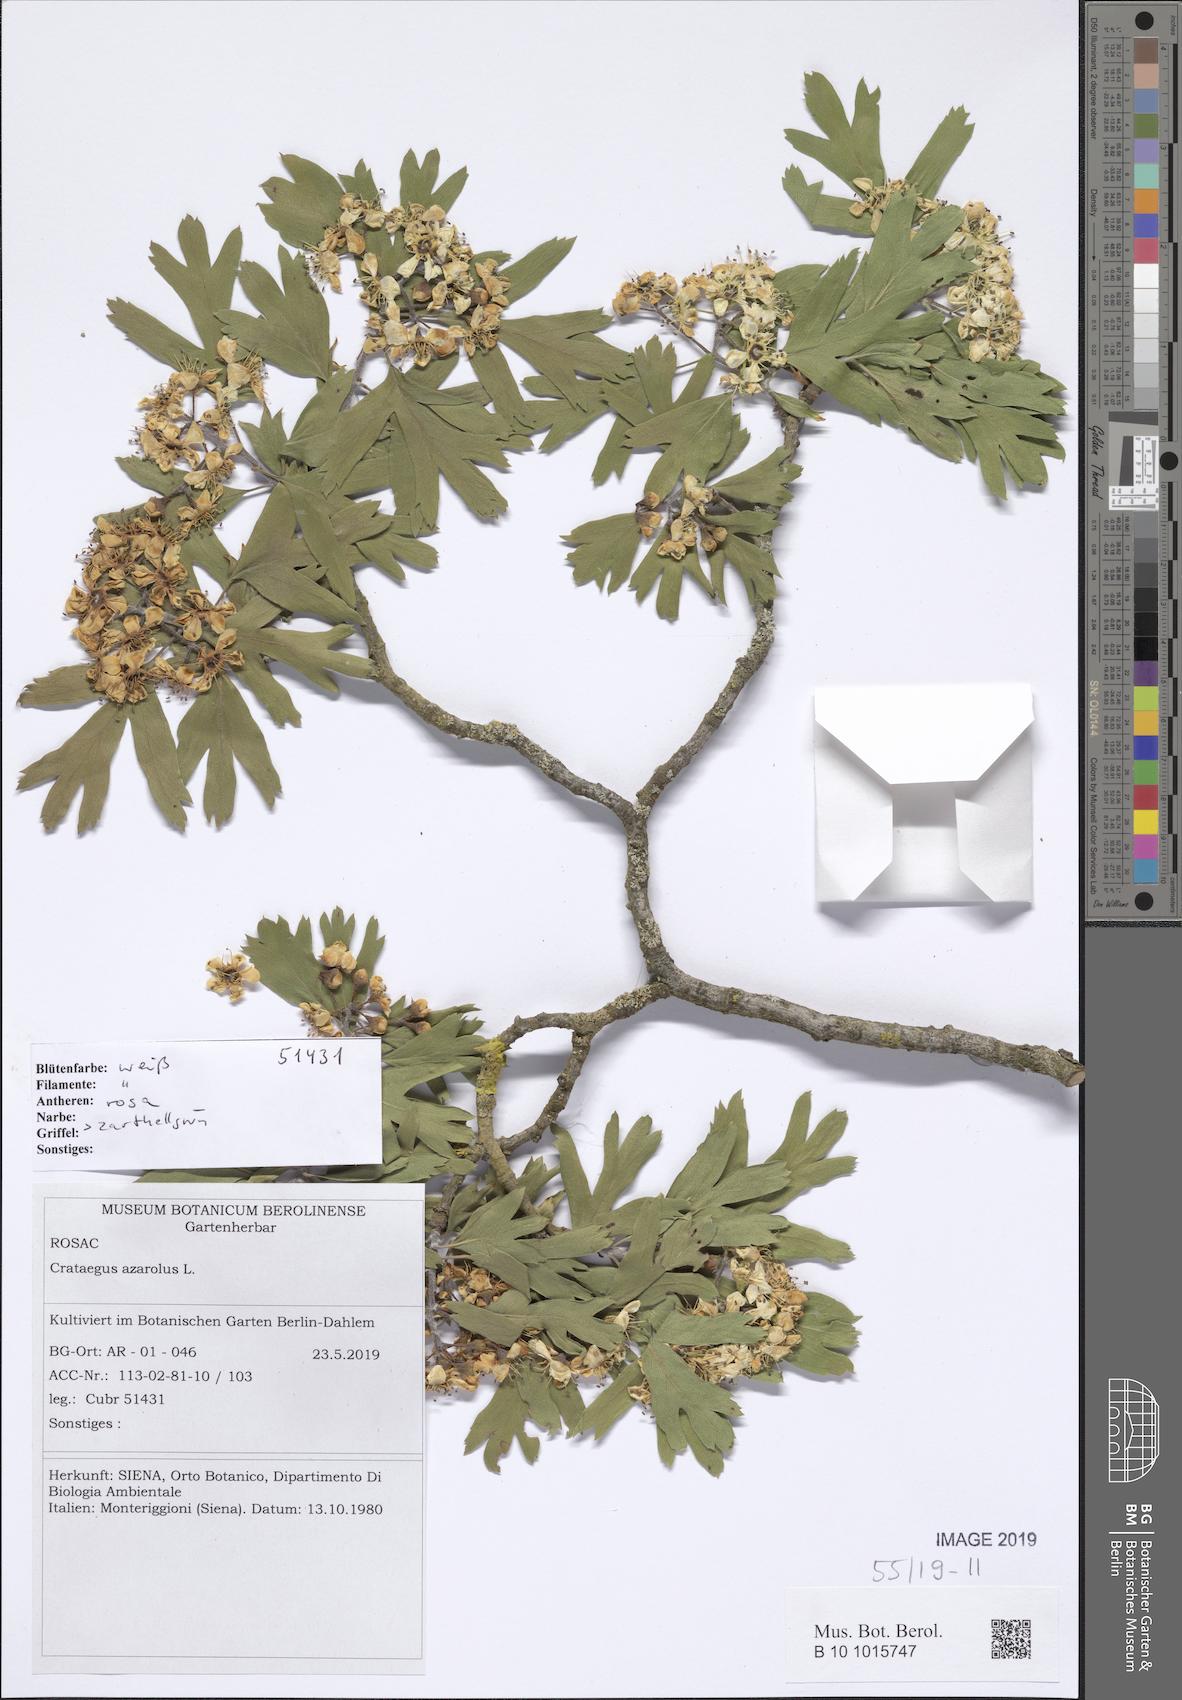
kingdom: Plantae
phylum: Tracheophyta
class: Magnoliopsida
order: Rosales
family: Rosaceae
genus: Crataegus
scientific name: Crataegus azarolus
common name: Azarole
